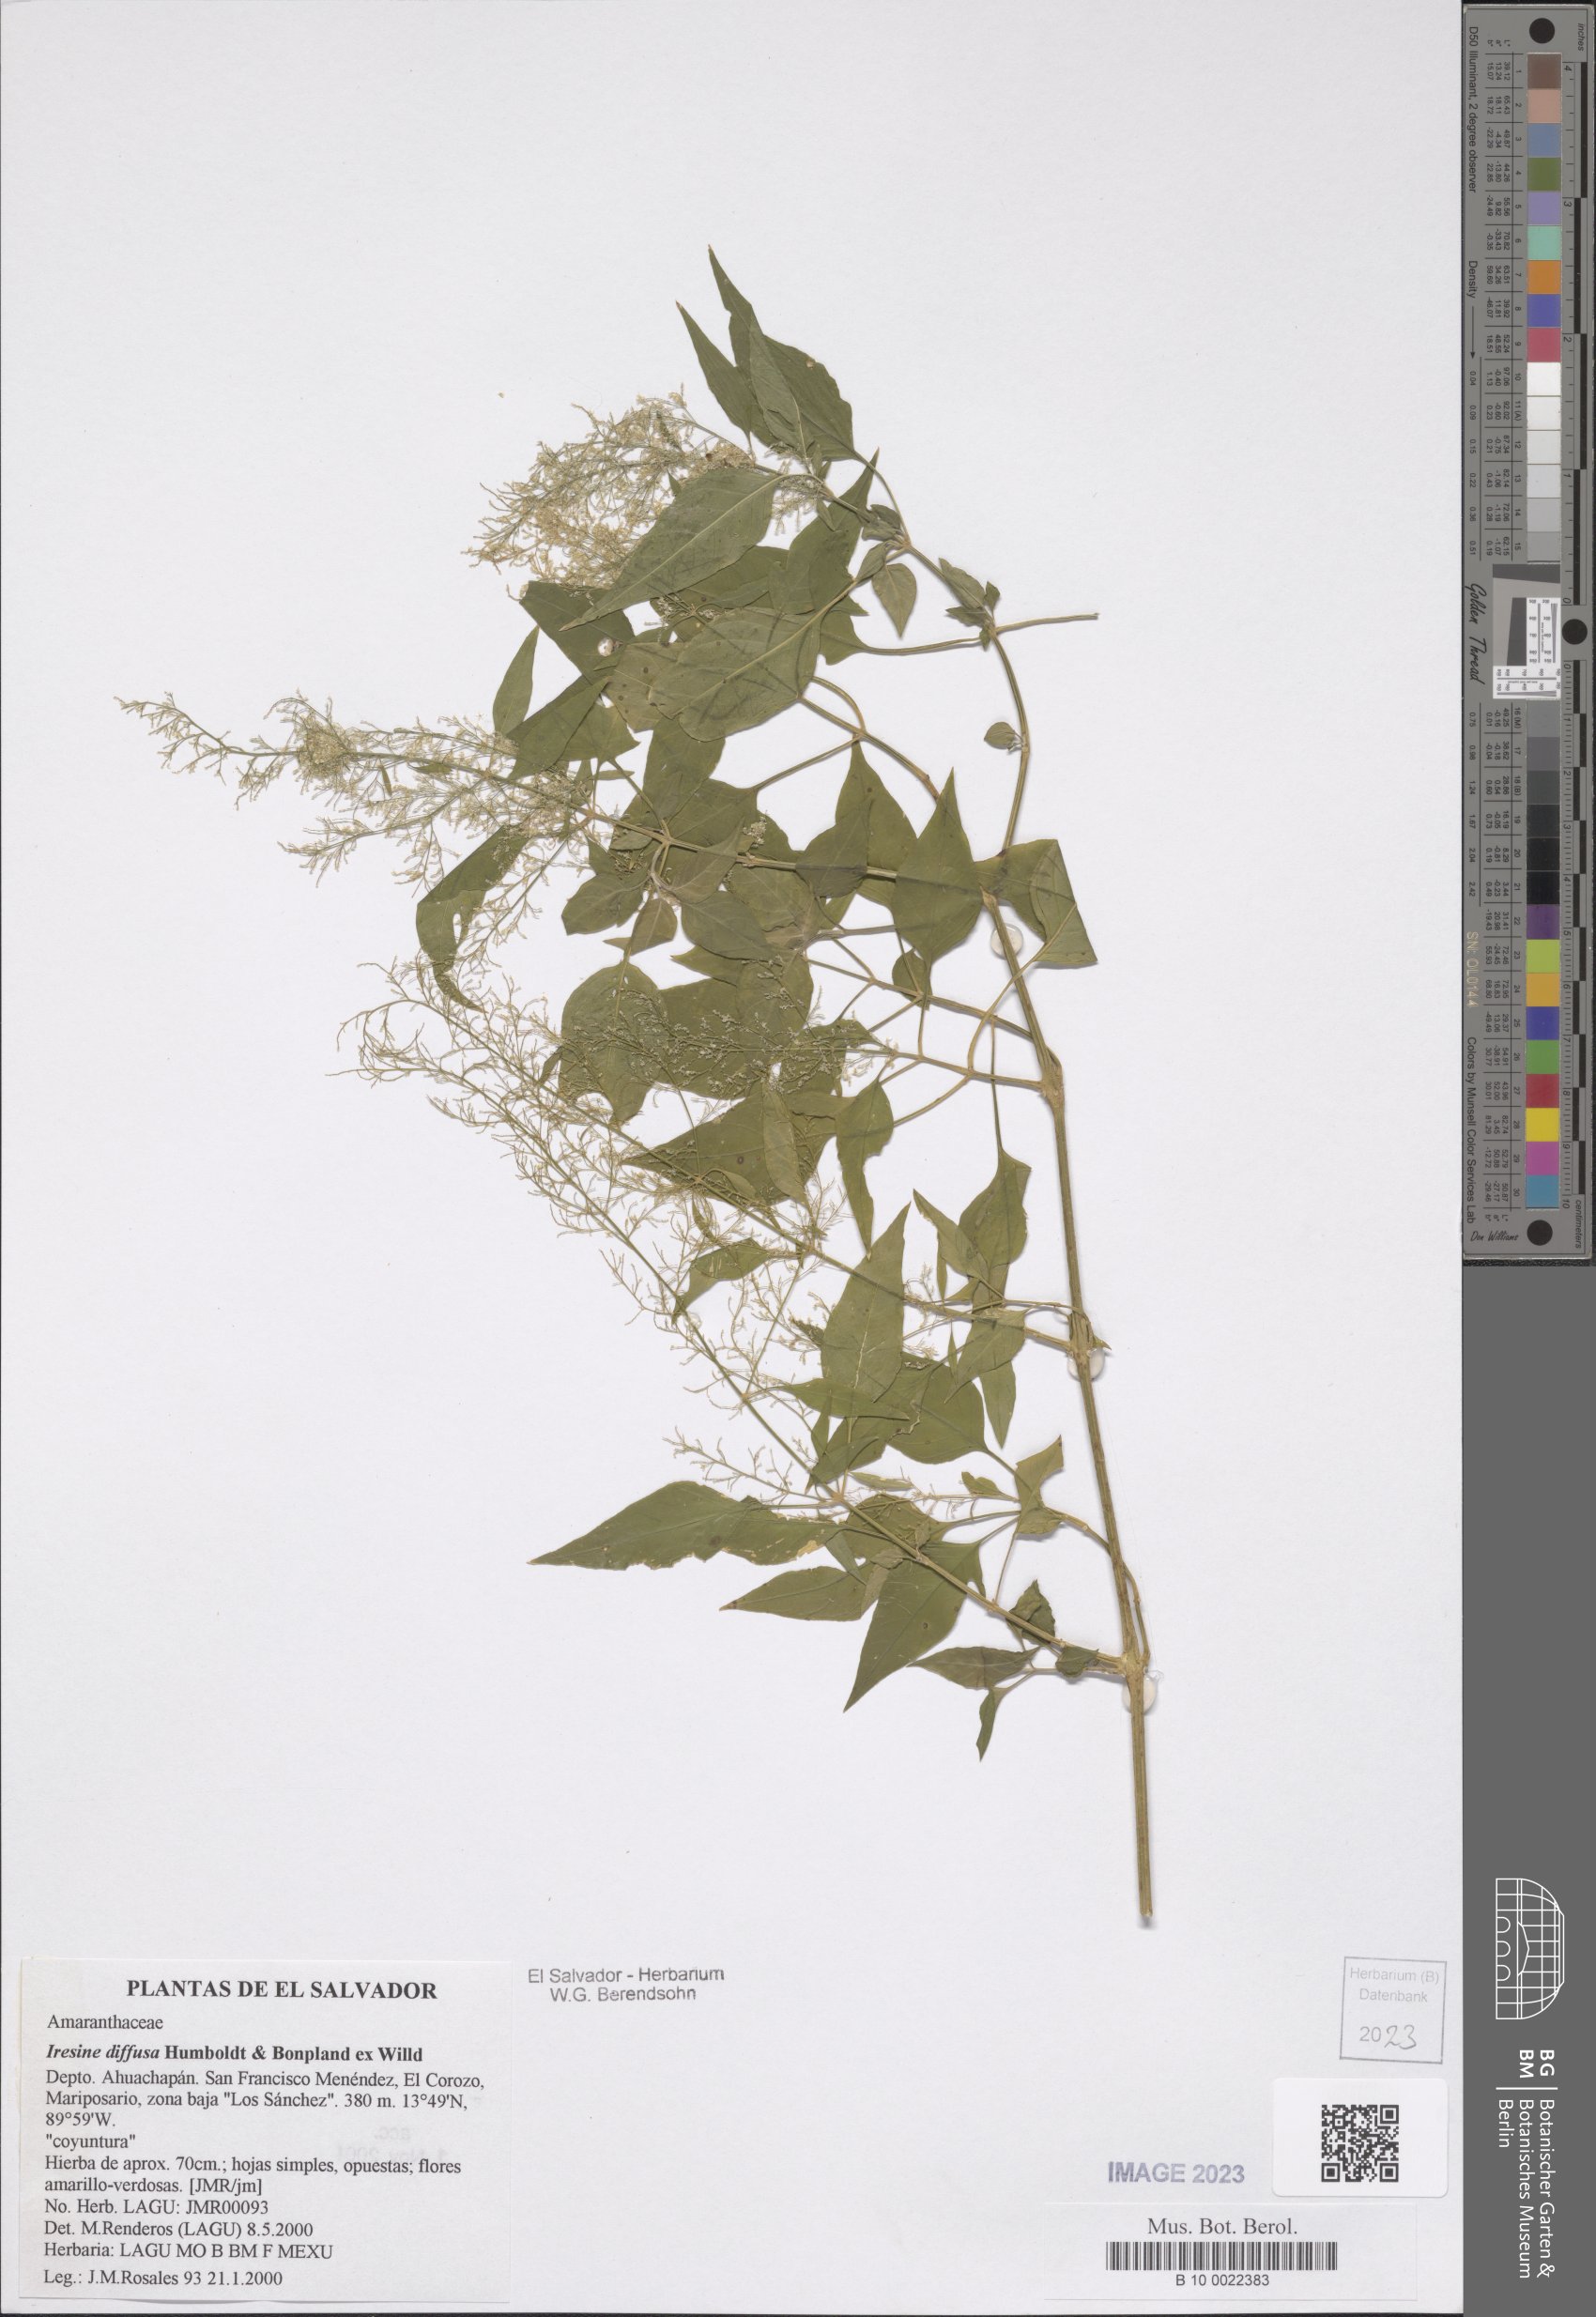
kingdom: Plantae
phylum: Tracheophyta
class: Magnoliopsida
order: Caryophyllales
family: Amaranthaceae
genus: Iresine
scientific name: Iresine diffusa
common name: Juba's-bush
